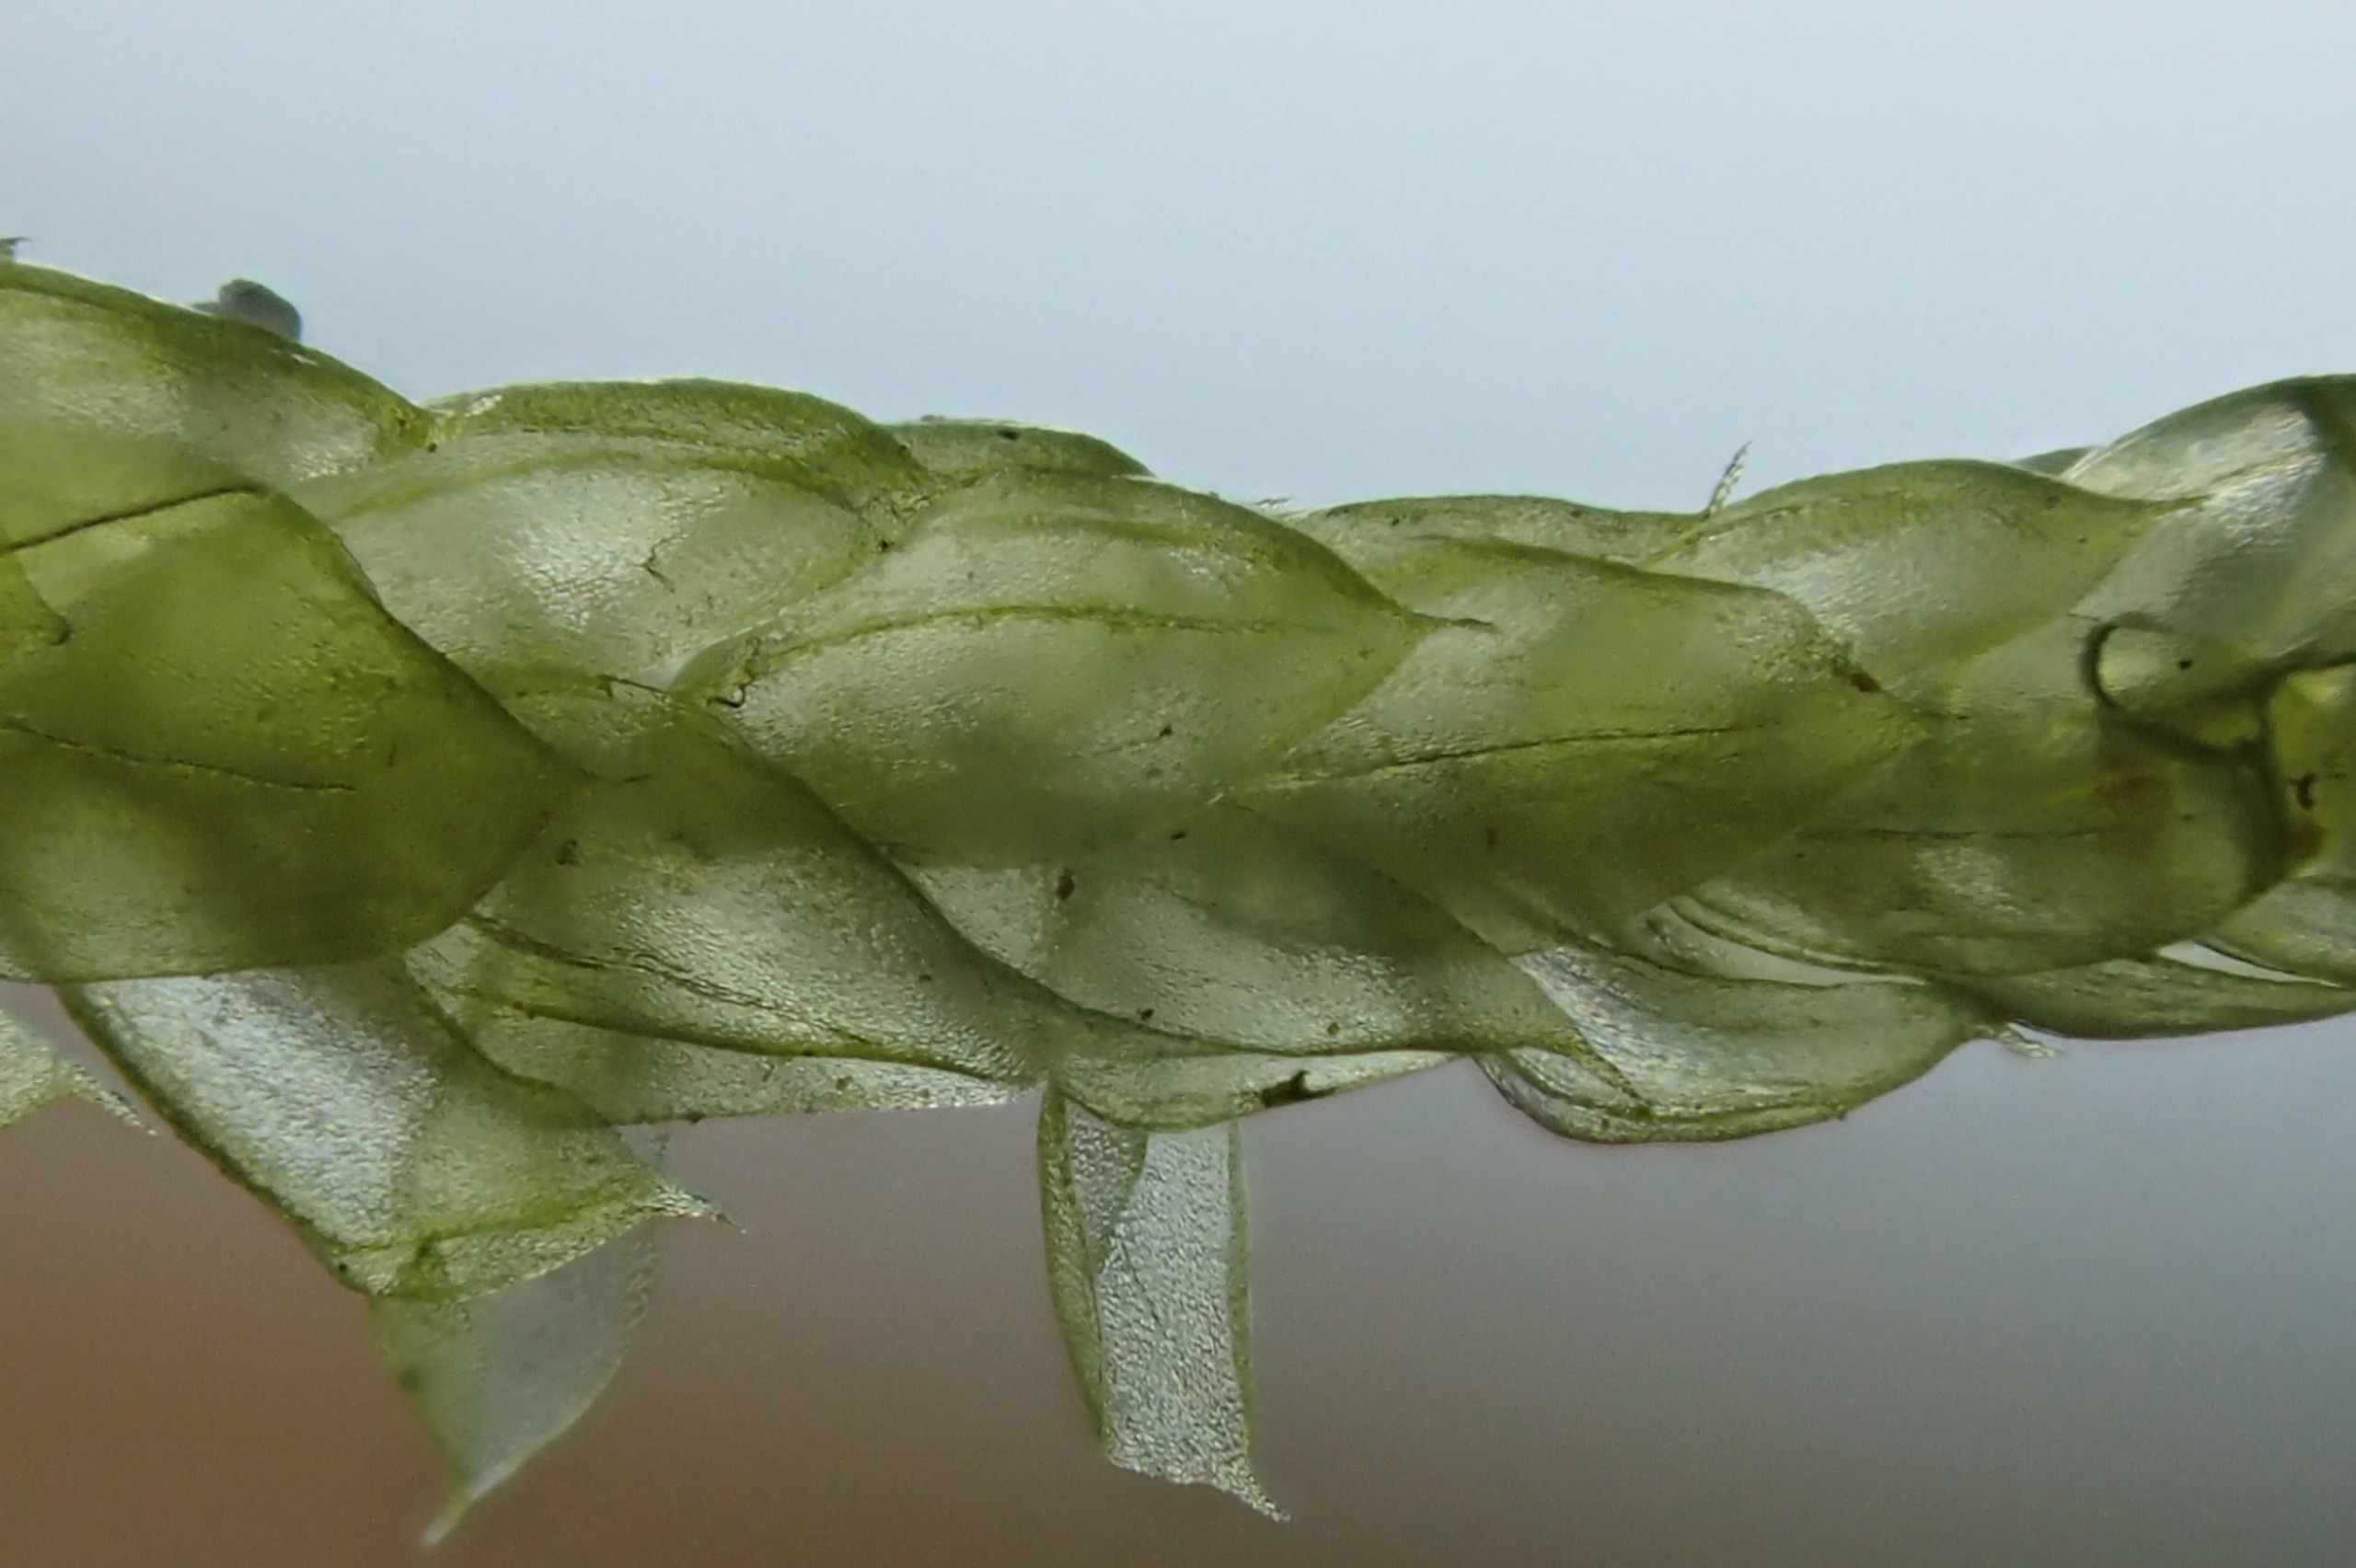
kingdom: Plantae
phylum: Bryophyta
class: Bryopsida
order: Hypnales
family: Brachytheciaceae
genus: Pseudoscleropodium
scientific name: Pseudoscleropodium purum
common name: Hulbladet fedtmos
